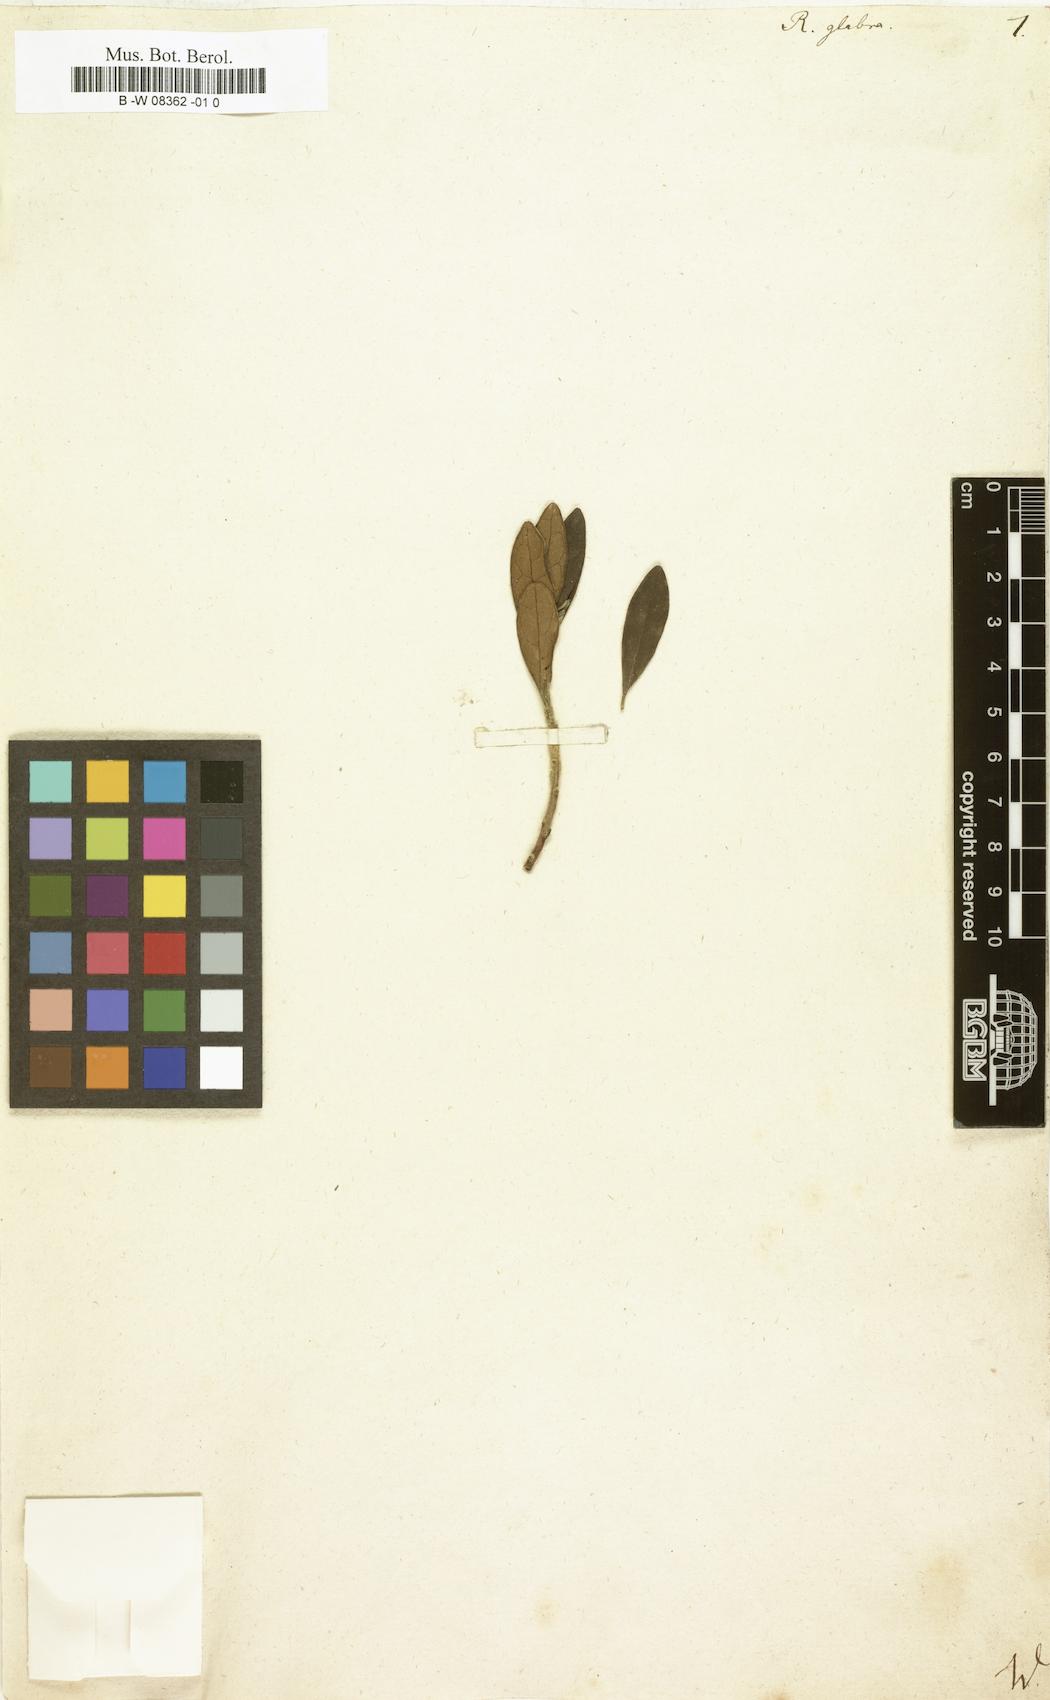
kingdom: Plantae
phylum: Tracheophyta
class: Magnoliopsida
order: Ericales
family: Ebenaceae
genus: Diospyros
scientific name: Diospyros glabra
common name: Fynbos star apple
